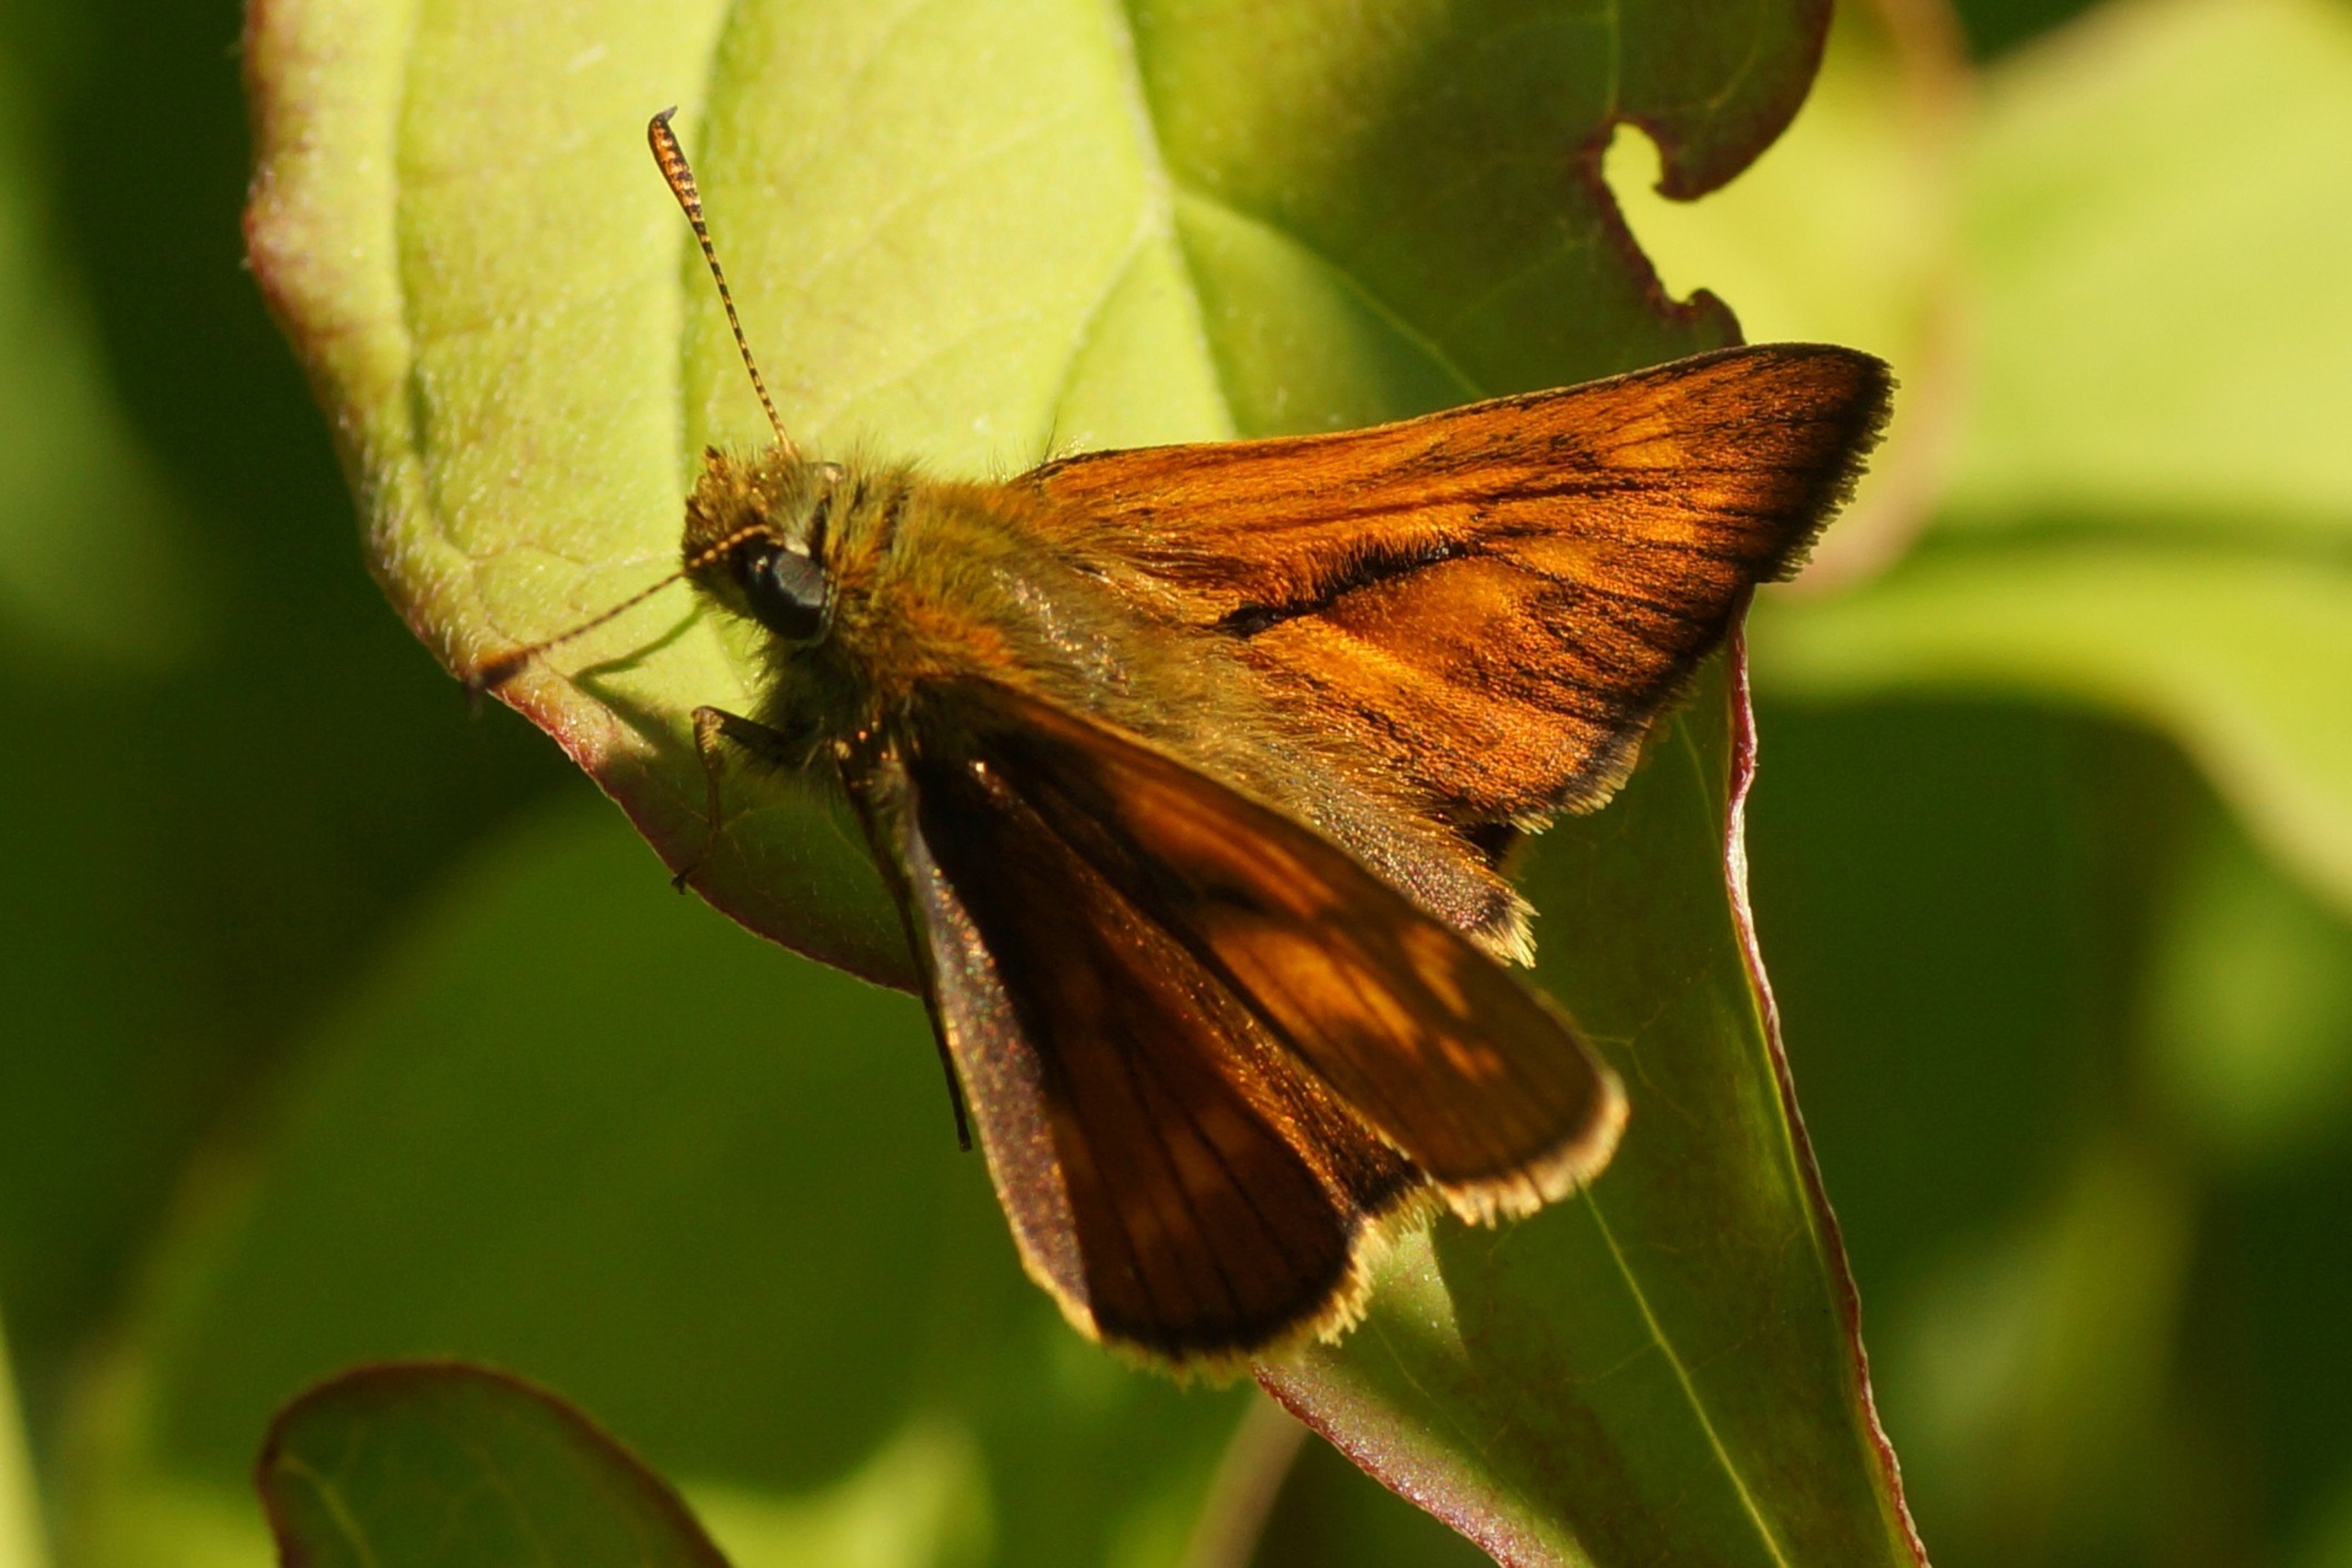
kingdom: Animalia
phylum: Arthropoda
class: Insecta
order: Lepidoptera
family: Hesperiidae
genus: Ochlodes
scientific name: Ochlodes venata
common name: Stor bredpande
